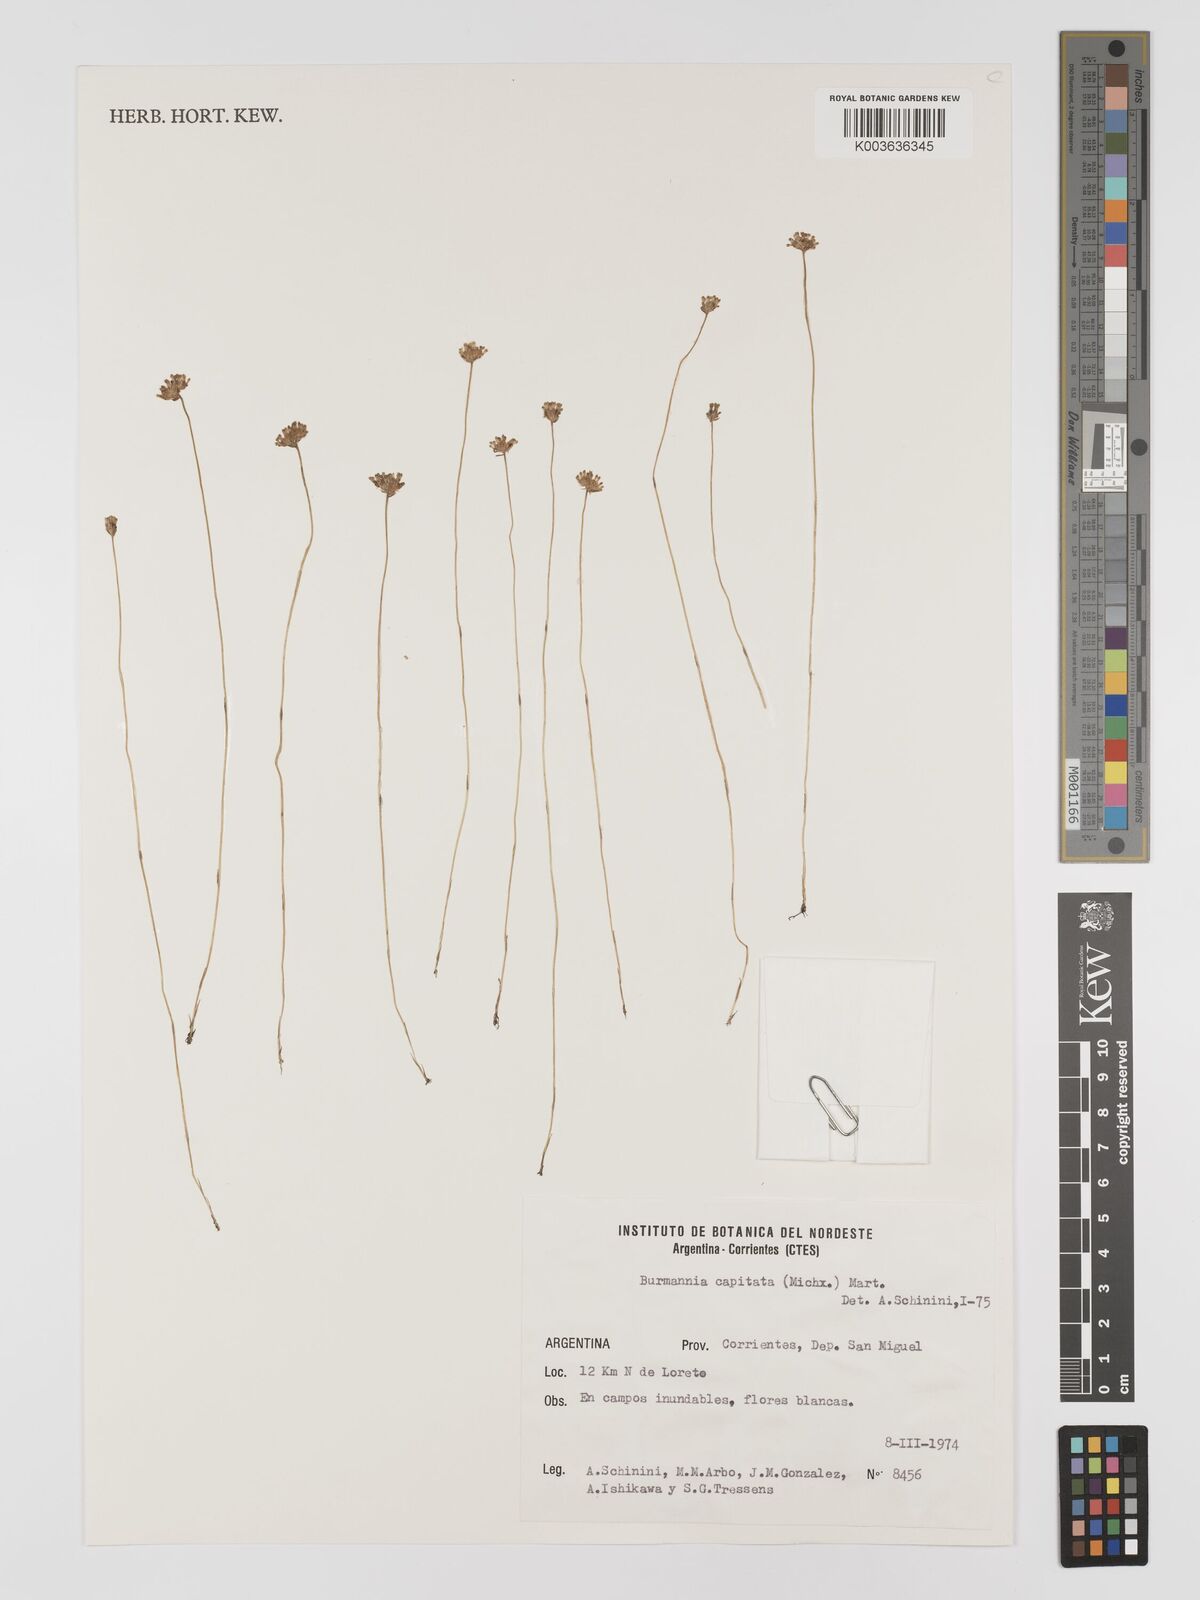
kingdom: Plantae
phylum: Tracheophyta
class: Liliopsida
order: Dioscoreales
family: Burmanniaceae
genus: Burmannia
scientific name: Burmannia capitata
